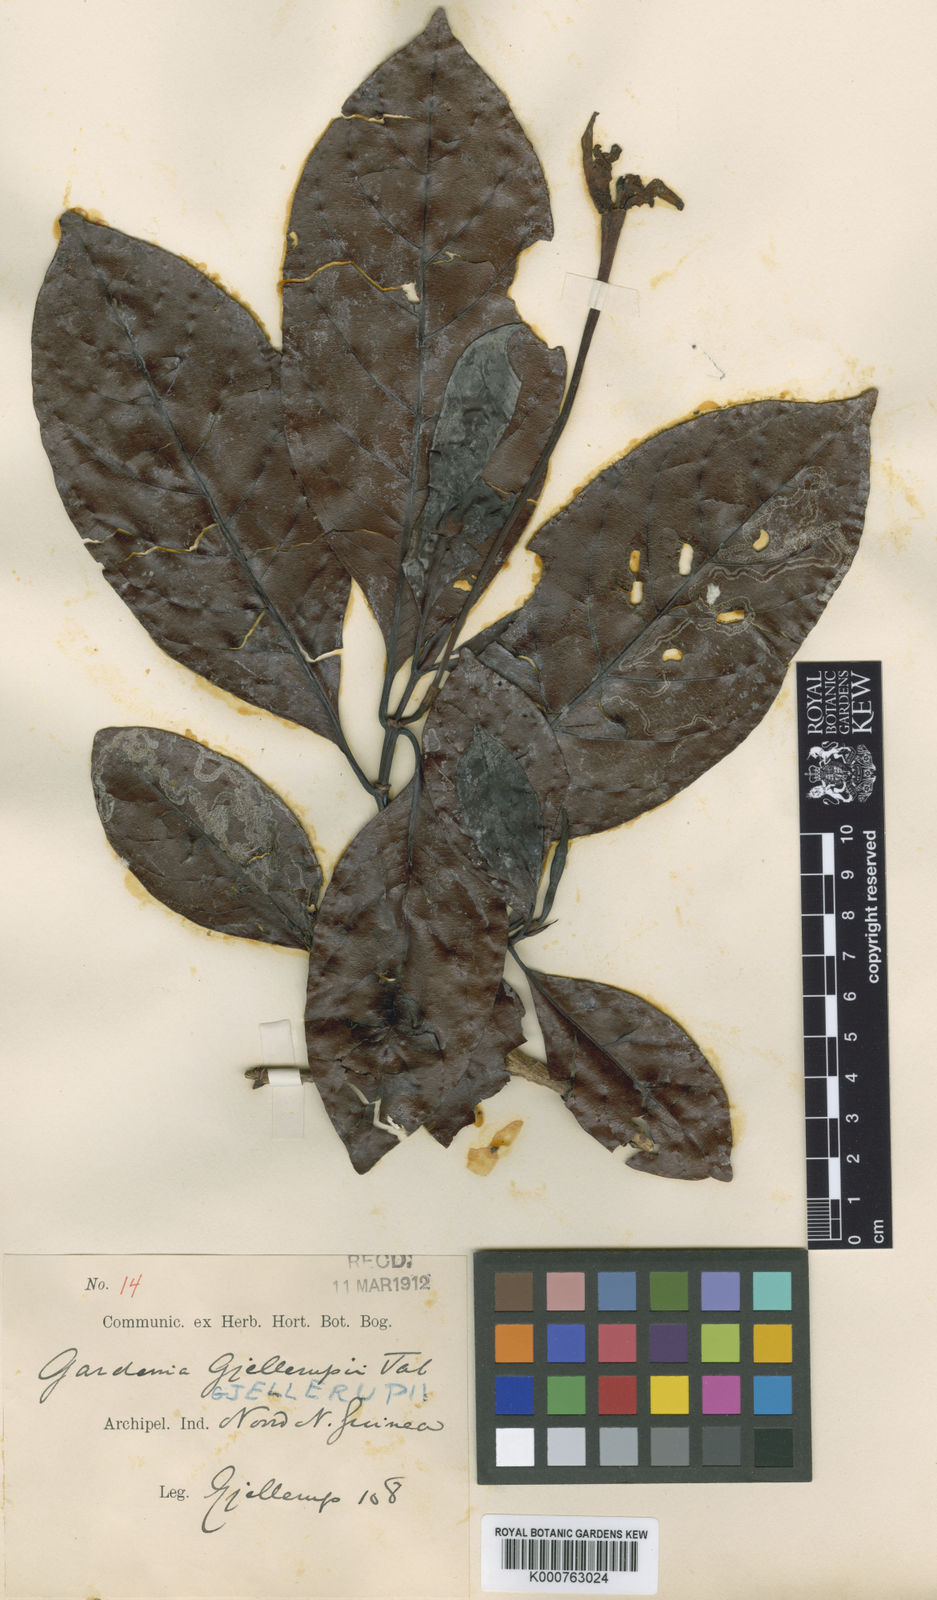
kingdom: Plantae
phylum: Tracheophyta
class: Magnoliopsida
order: Gentianales
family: Rubiaceae
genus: Gardenia
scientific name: Gardenia gjellerupii
